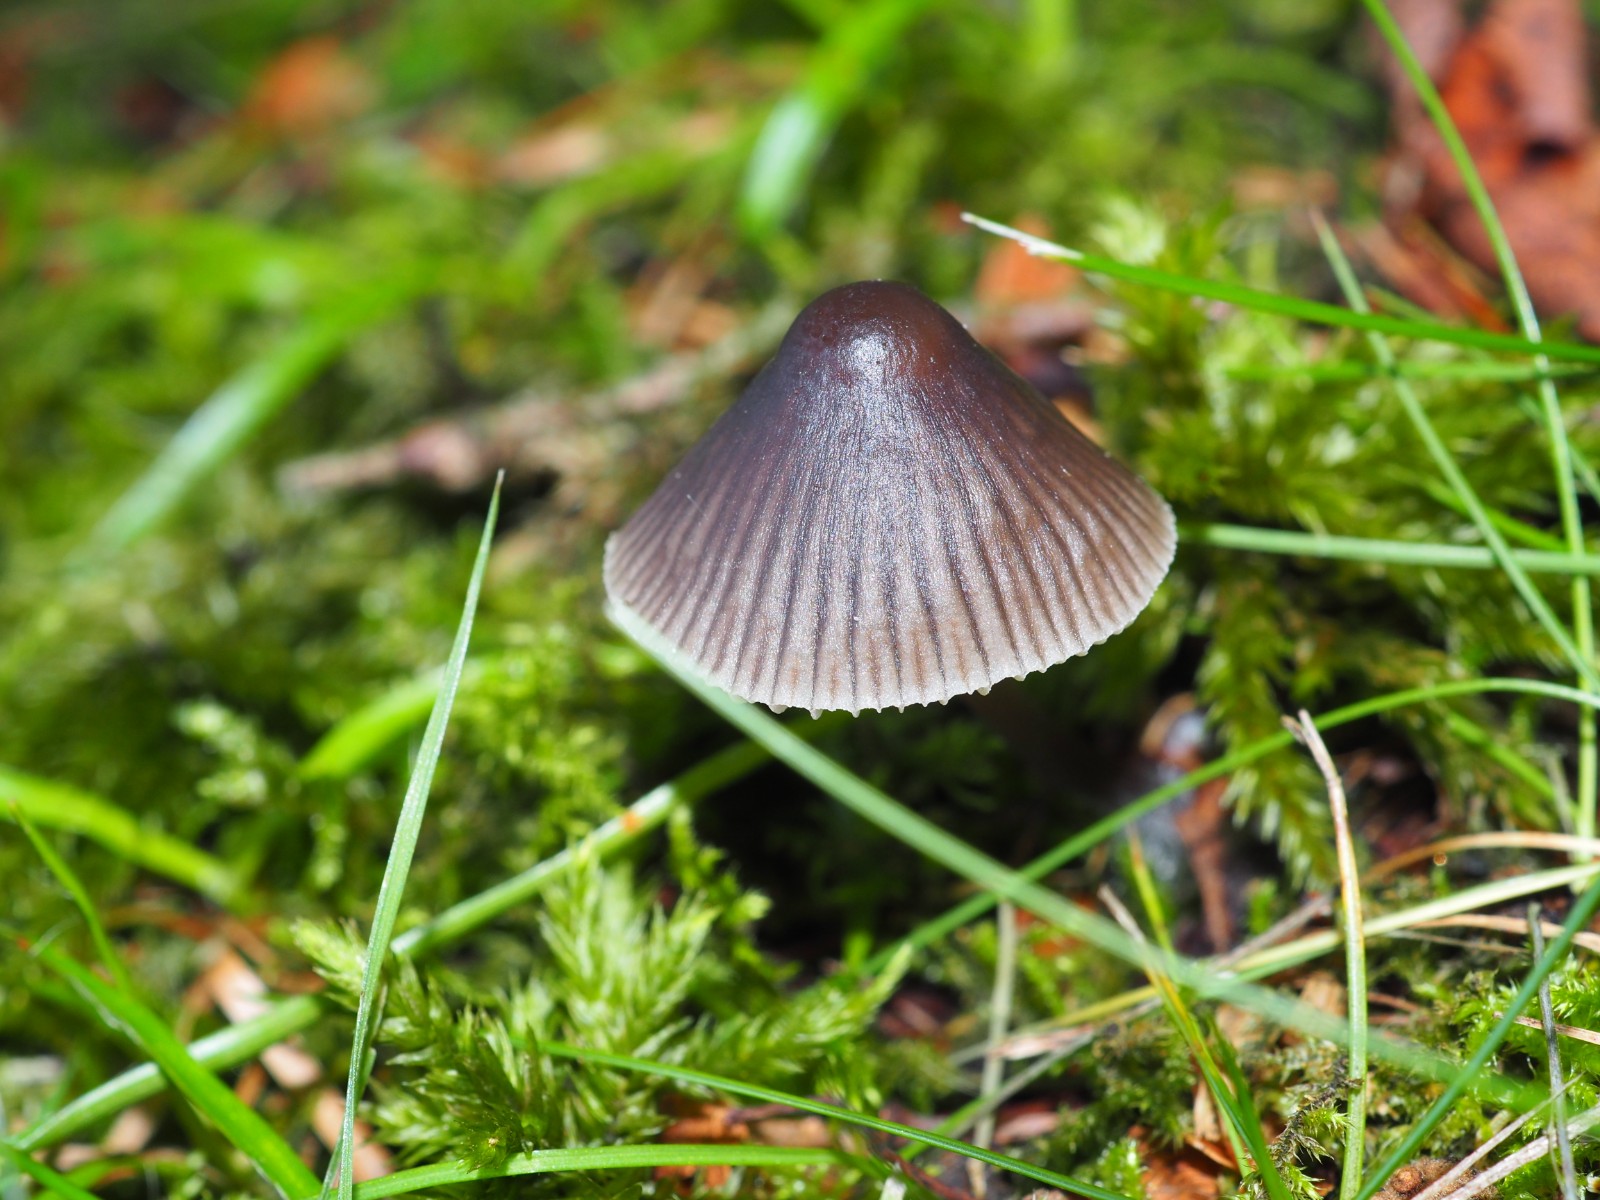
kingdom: Fungi
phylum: Basidiomycota
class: Agaricomycetes
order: Agaricales
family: Mycenaceae
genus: Mycena
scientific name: Mycena aetites
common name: plæne-huesvamp
